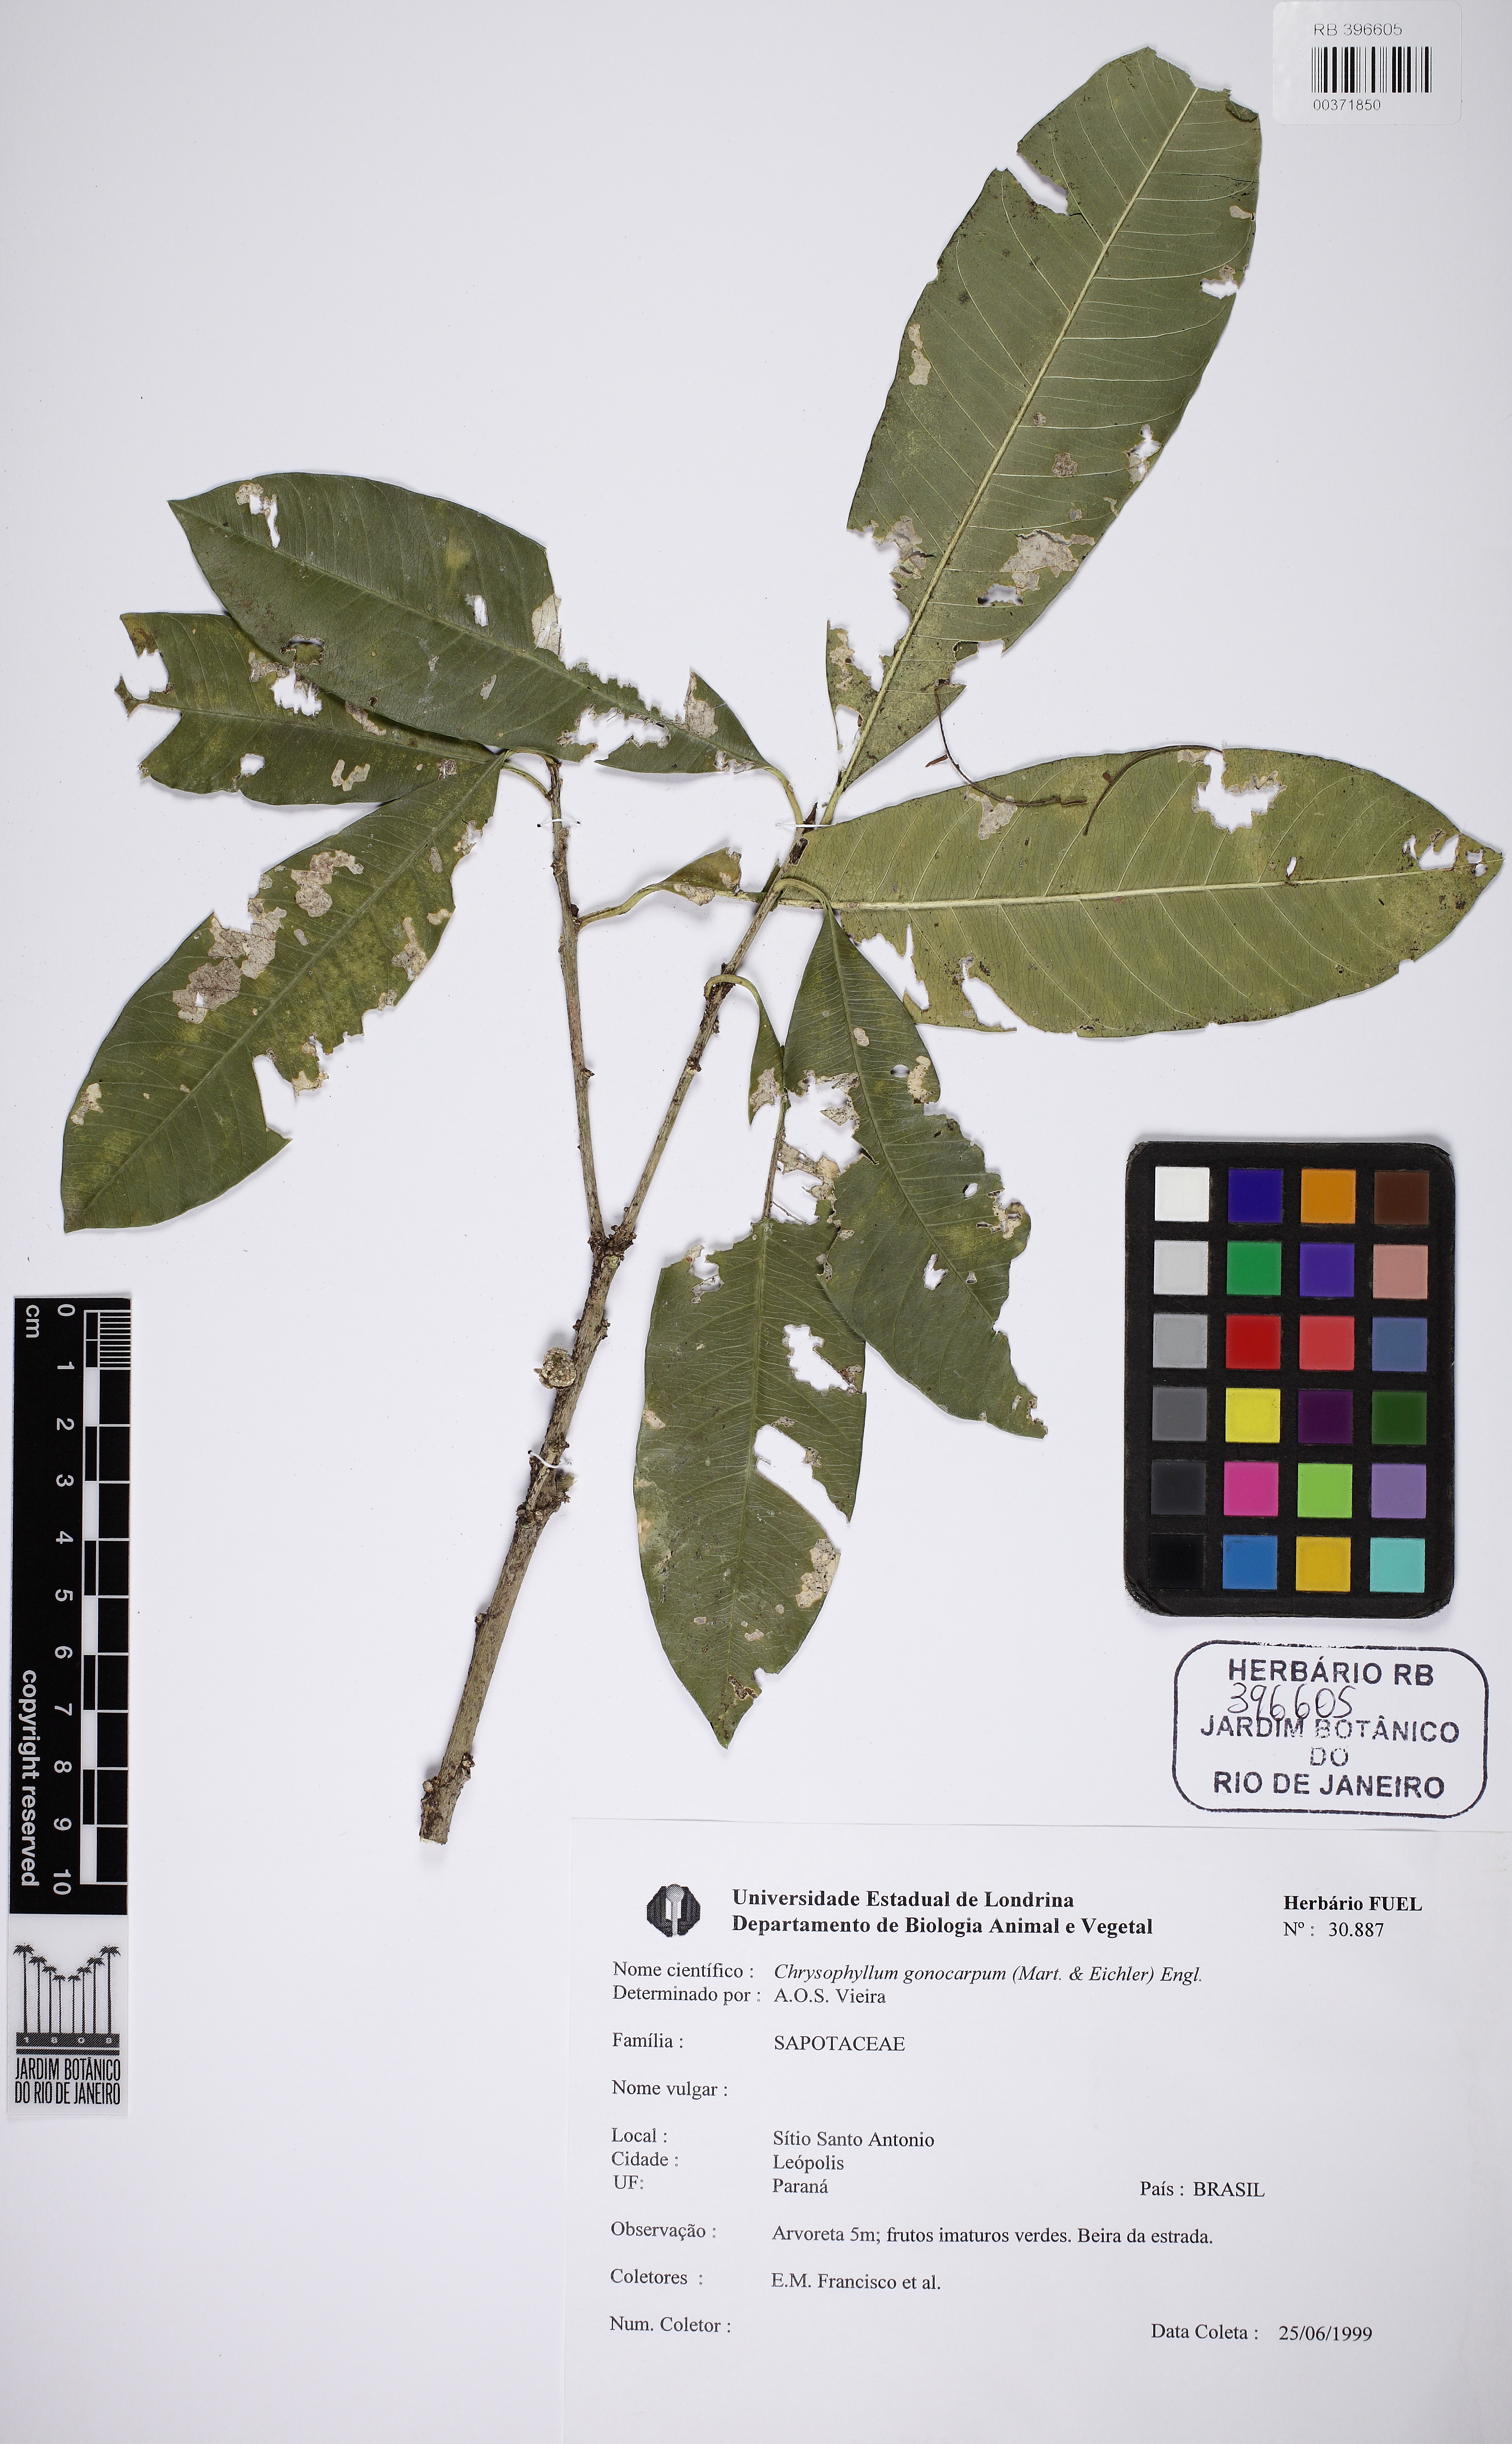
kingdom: Plantae
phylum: Tracheophyta
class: Magnoliopsida
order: Ericales
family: Sapotaceae
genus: Chrysophyllum
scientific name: Chrysophyllum gonocarpum
